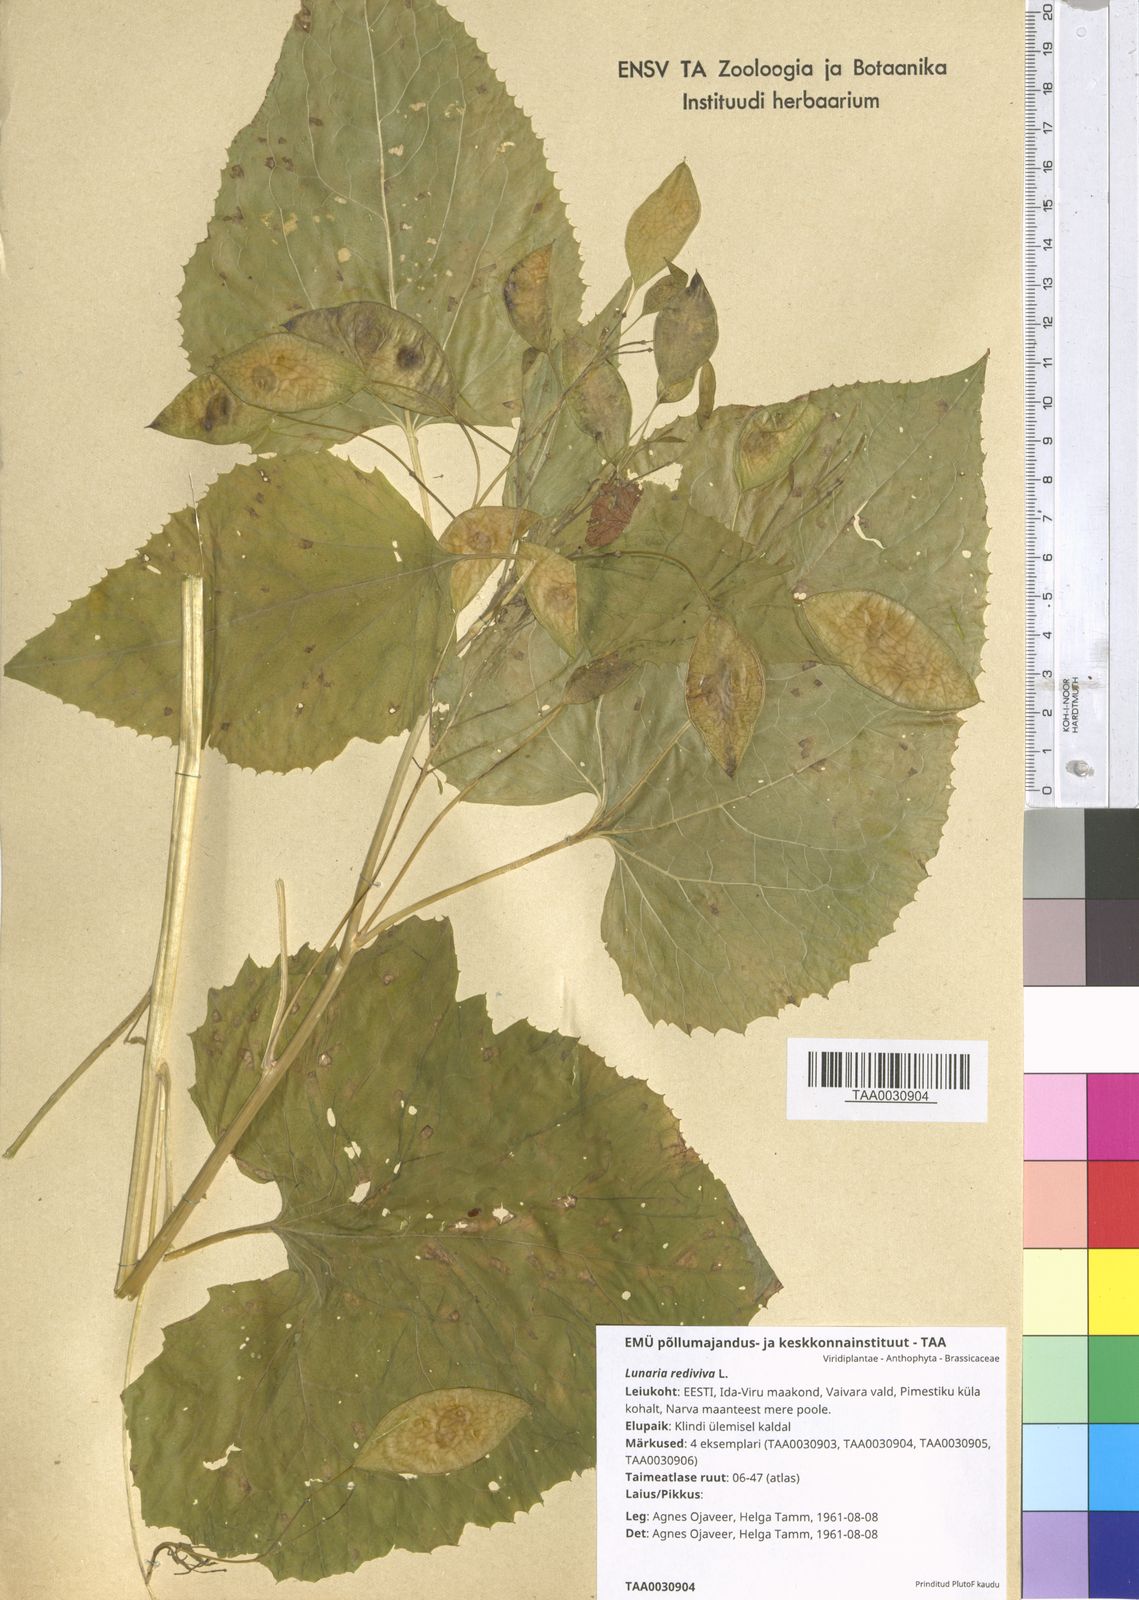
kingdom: Plantae
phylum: Tracheophyta
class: Magnoliopsida
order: Brassicales
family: Brassicaceae
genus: Lunaria
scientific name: Lunaria rediviva
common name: Perennial honesty
